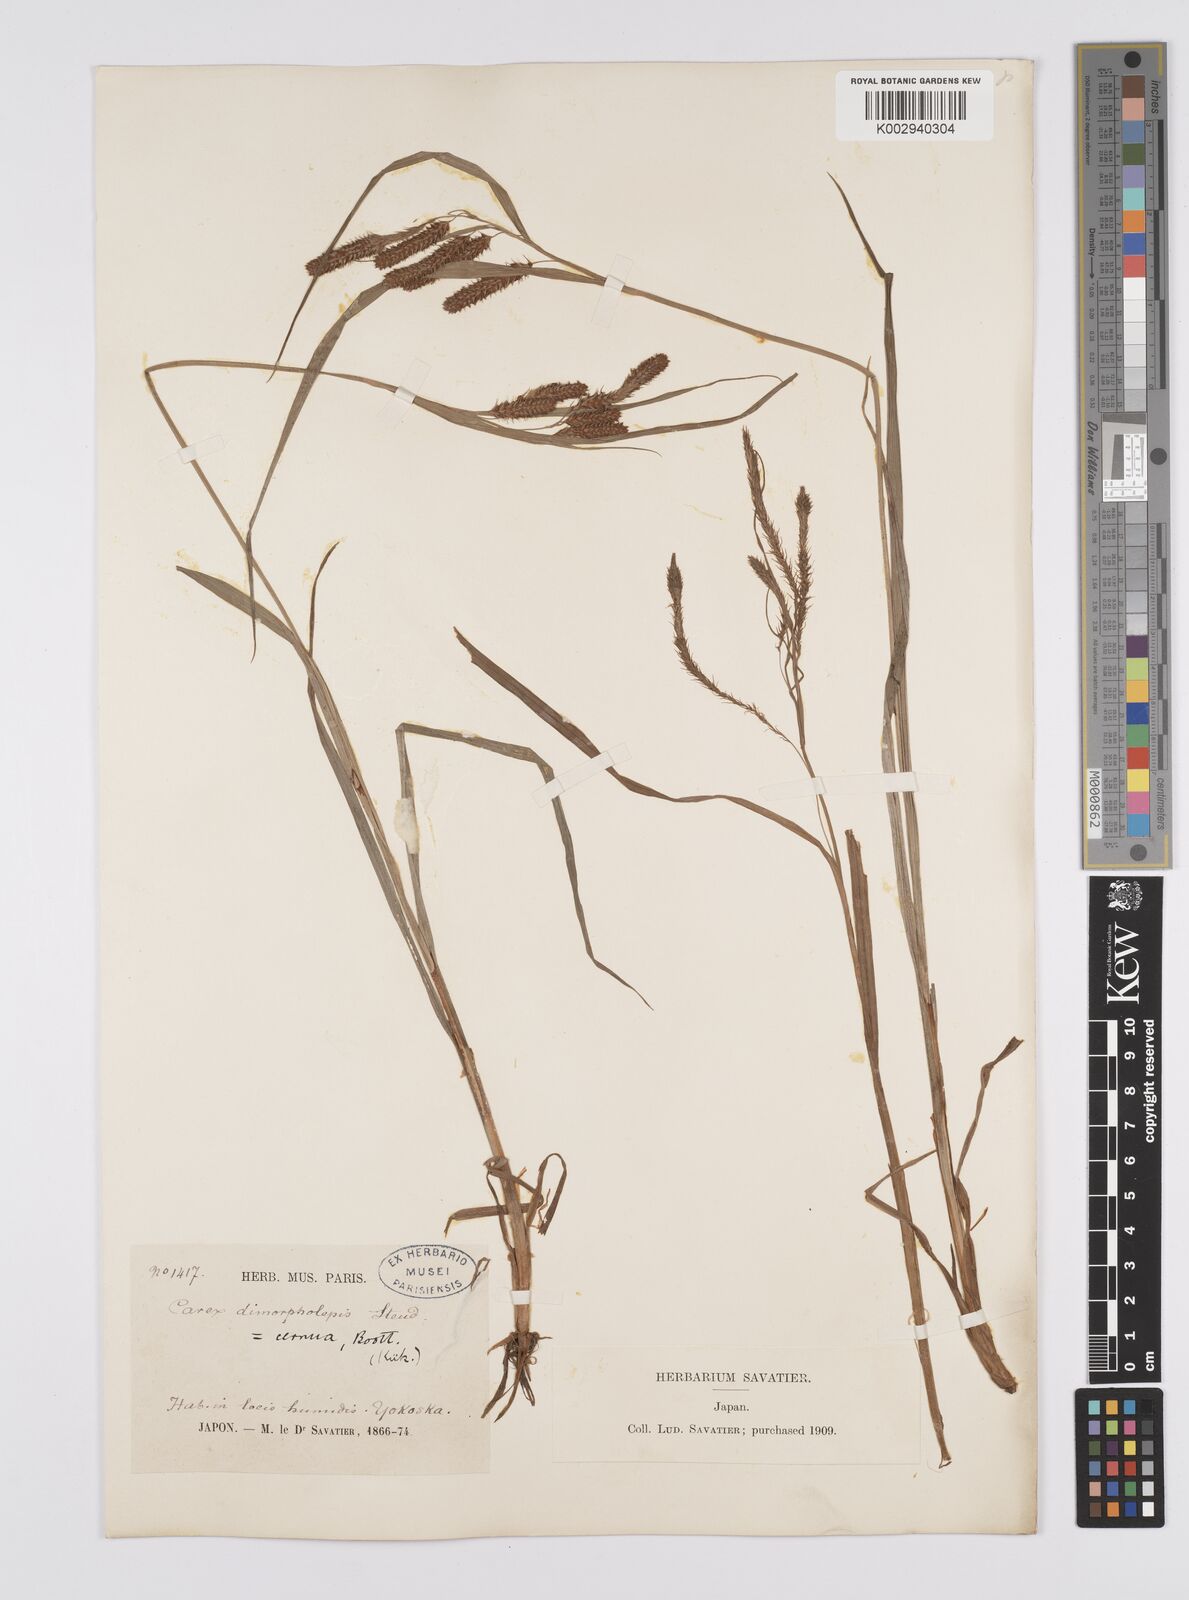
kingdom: Plantae
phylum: Tracheophyta
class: Liliopsida
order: Poales
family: Cyperaceae
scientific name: Cyperaceae
